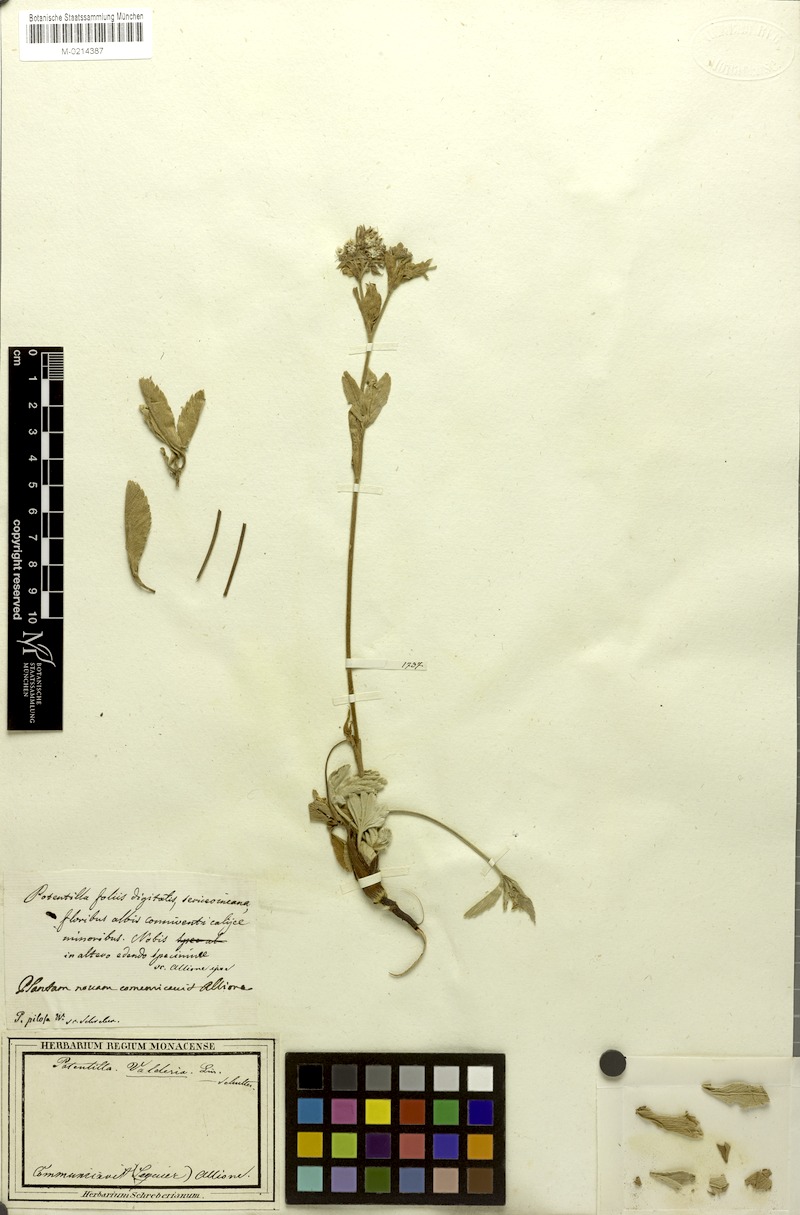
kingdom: Plantae
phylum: Tracheophyta
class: Magnoliopsida
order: Rosales
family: Rosaceae
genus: Potentilla
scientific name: Potentilla valderia
